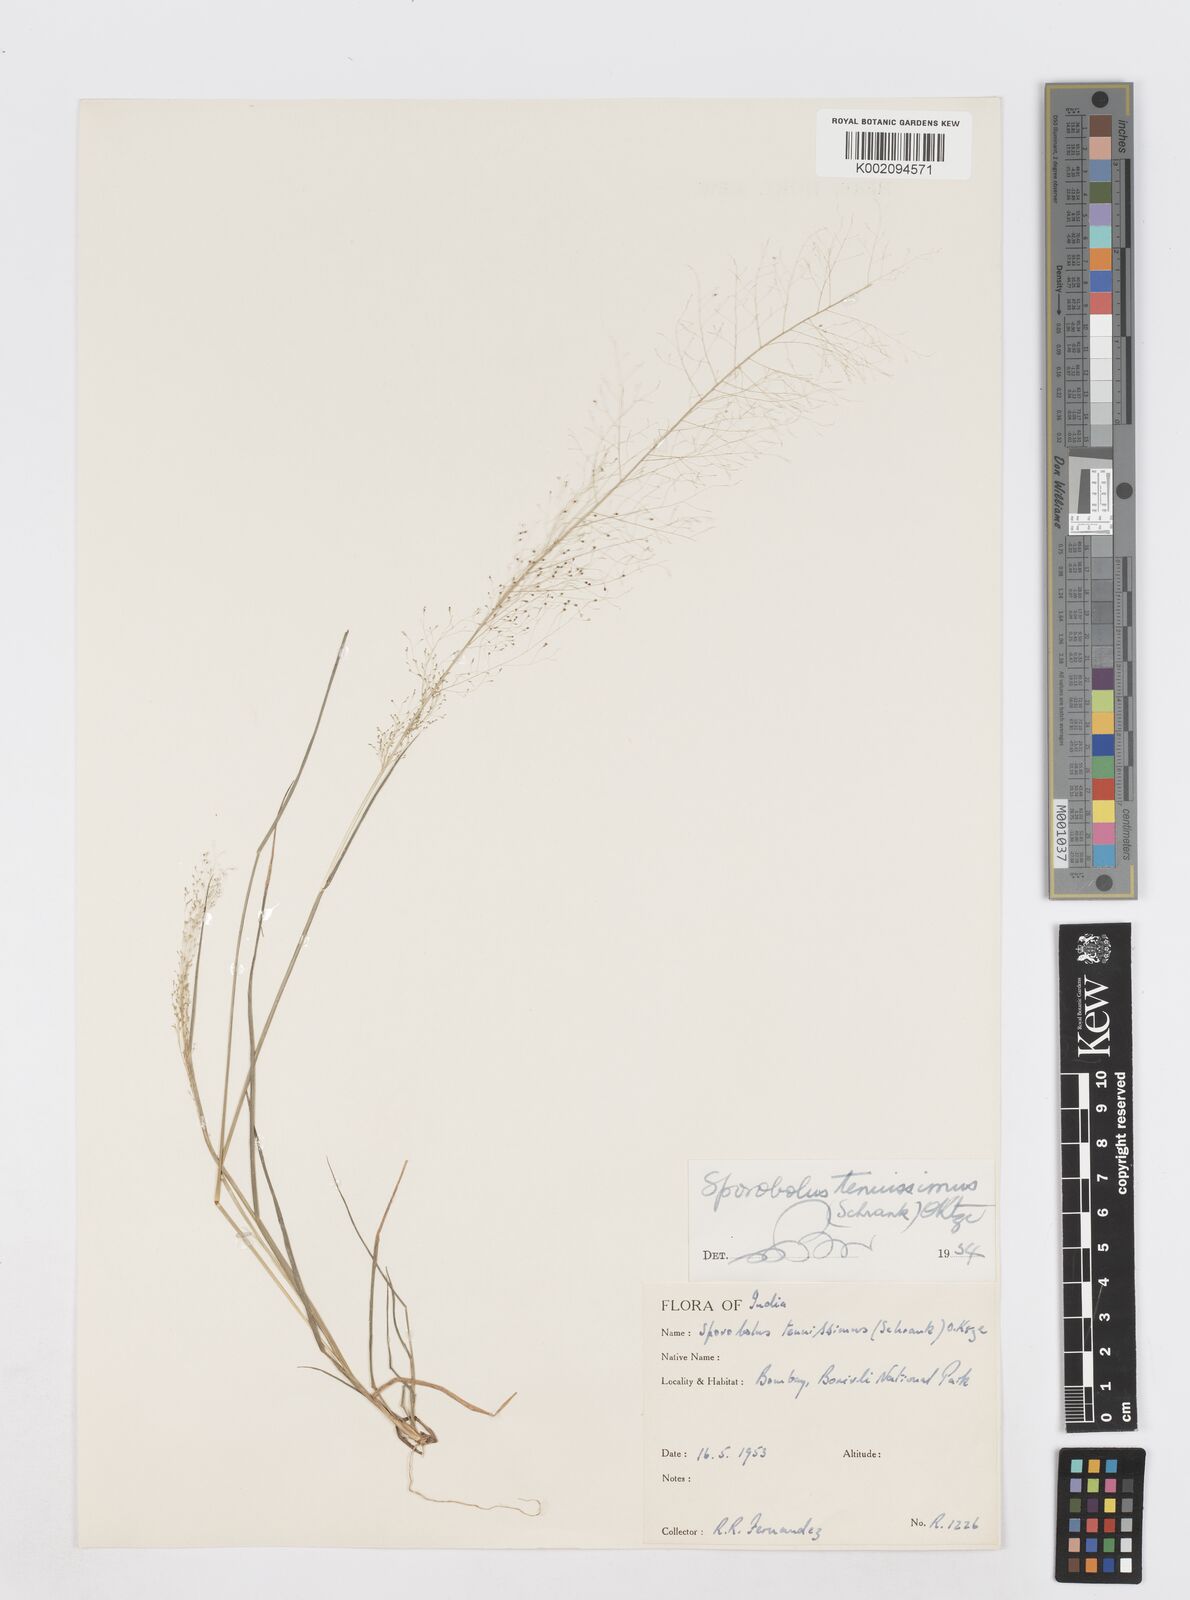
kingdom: Plantae
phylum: Tracheophyta
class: Liliopsida
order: Poales
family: Poaceae
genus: Sporobolus
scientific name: Sporobolus tenuissimus
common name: Tropical dropseed
